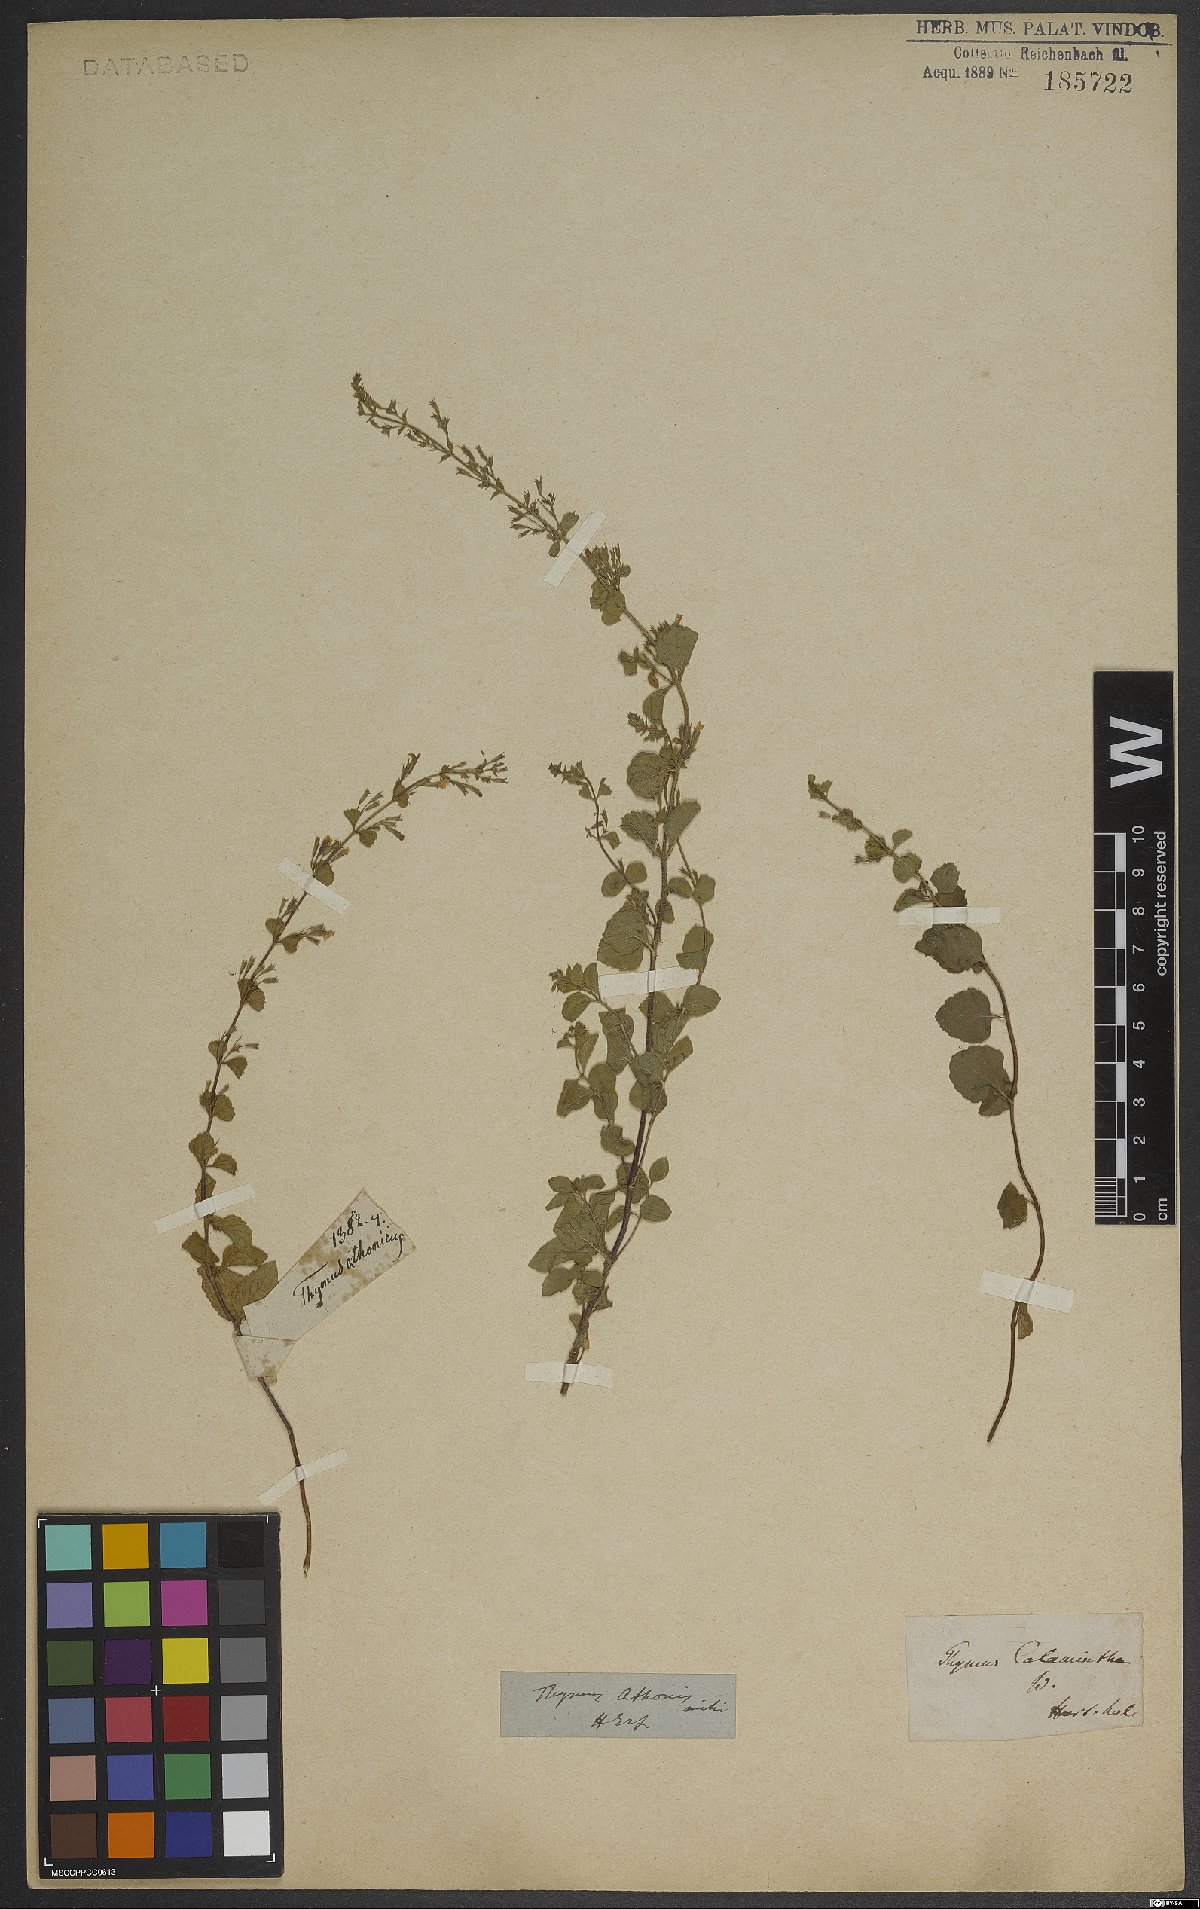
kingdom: Plantae
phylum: Tracheophyta
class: Magnoliopsida
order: Lamiales
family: Lamiaceae
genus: Clinopodium
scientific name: Clinopodium nepeta
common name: Lesser calamint
